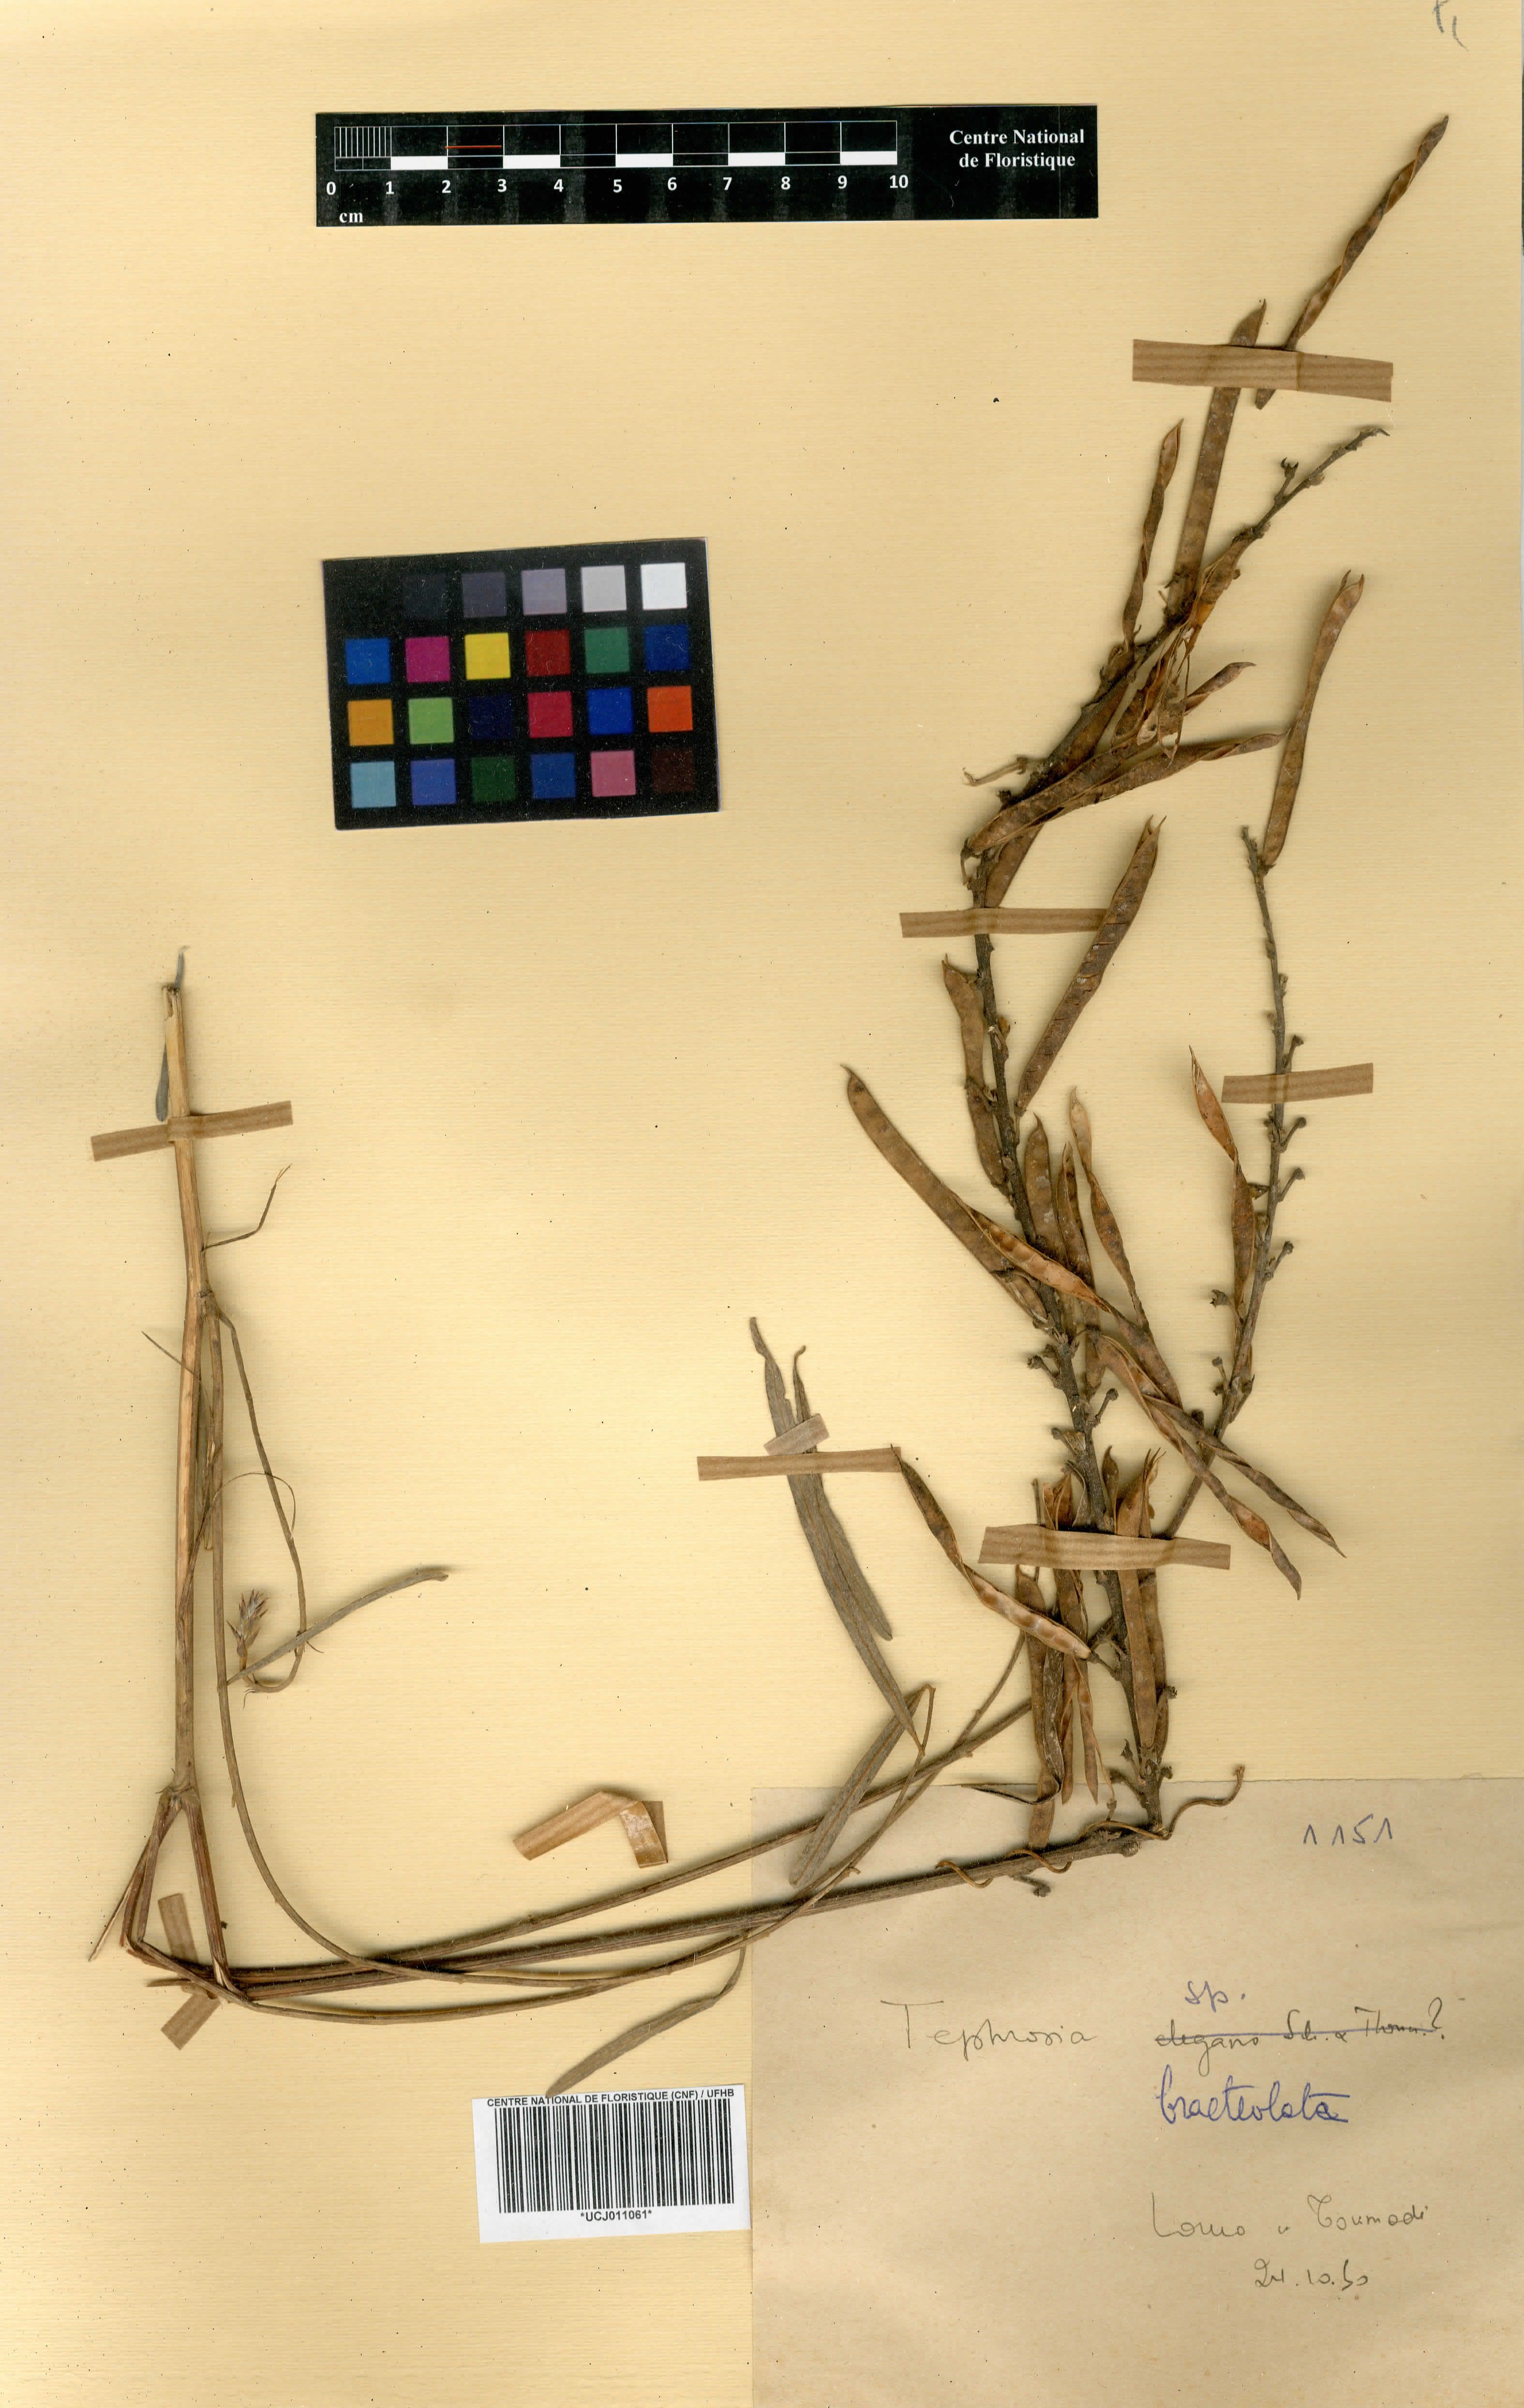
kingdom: Plantae
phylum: Tracheophyta
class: Magnoliopsida
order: Fabales
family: Fabaceae
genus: Tephrosia
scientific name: Tephrosia bracteolata
